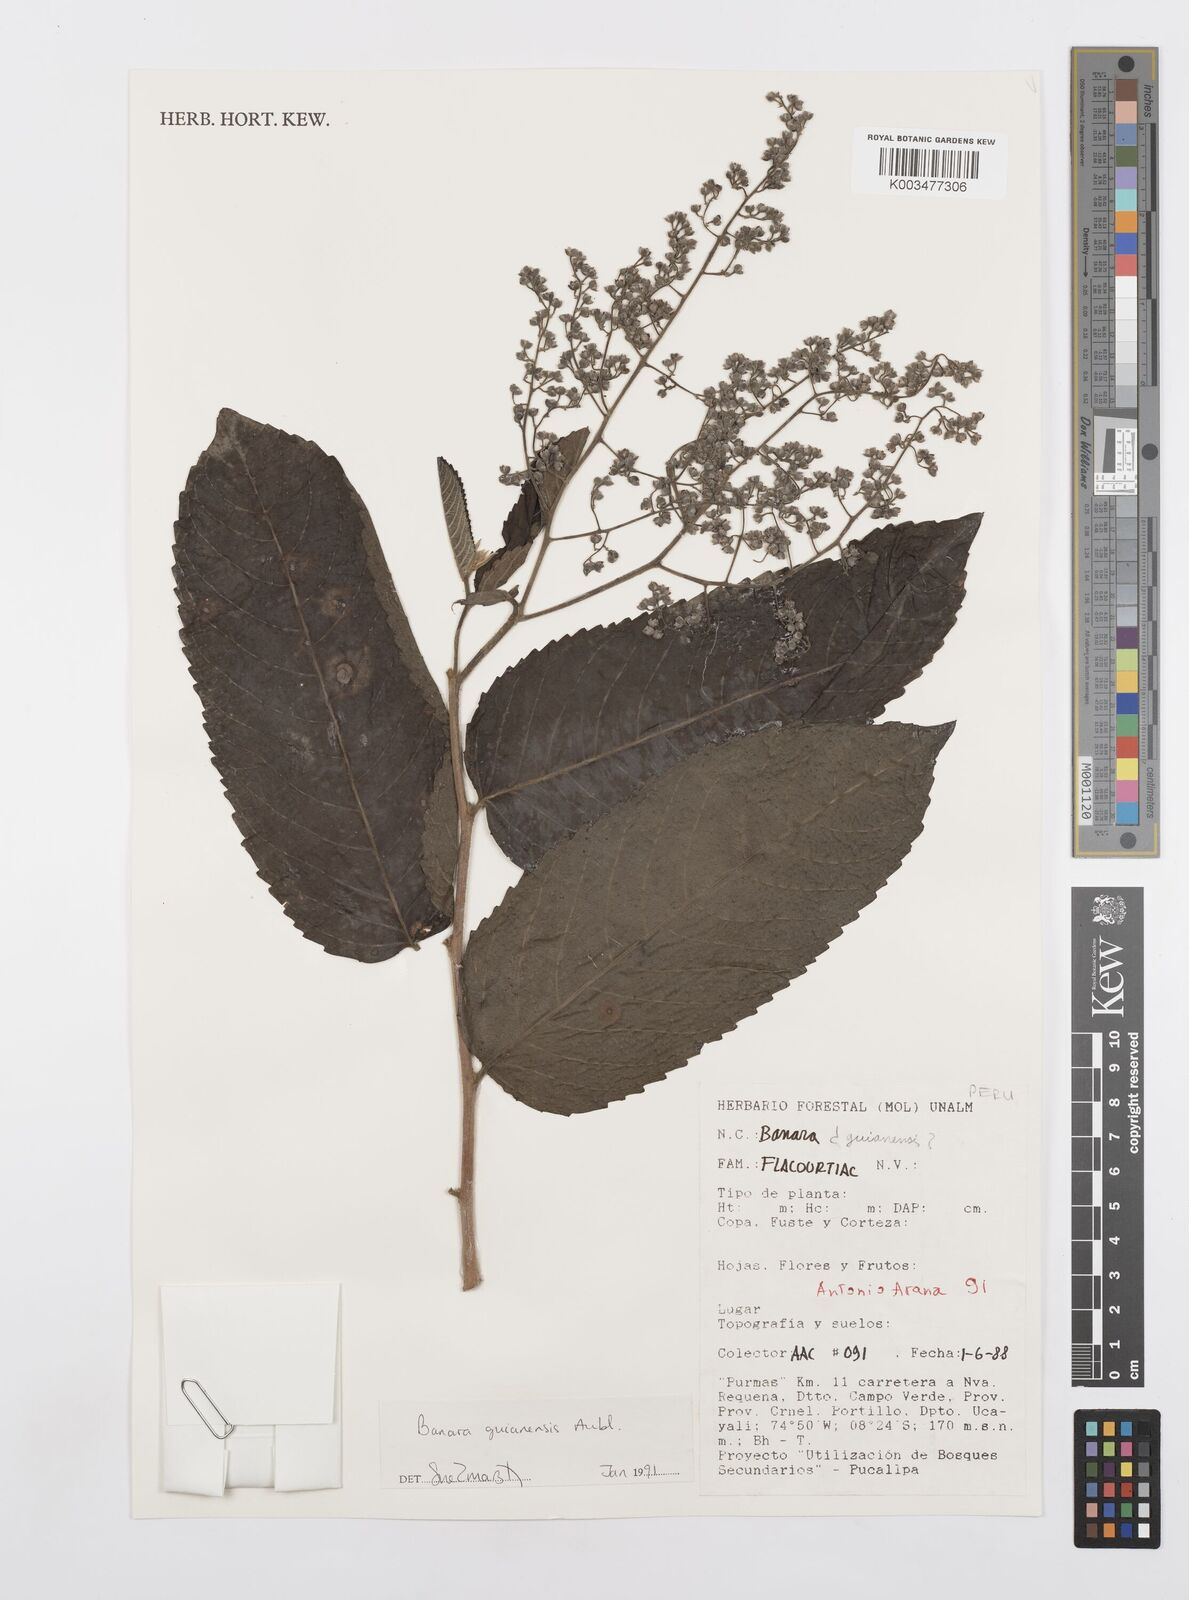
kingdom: Plantae
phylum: Tracheophyta
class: Magnoliopsida
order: Malpighiales
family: Salicaceae
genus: Banara
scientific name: Banara guianensis
